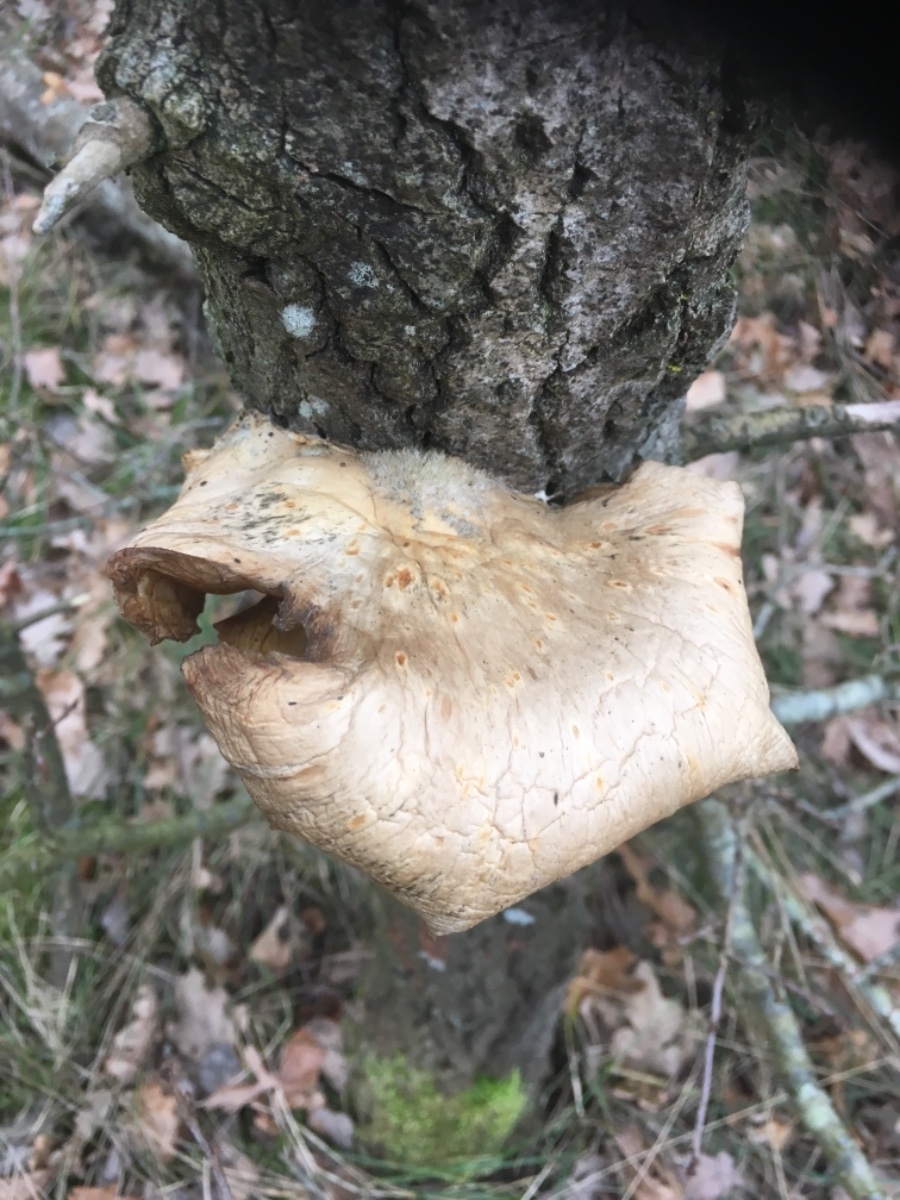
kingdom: Fungi
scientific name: Fungi
